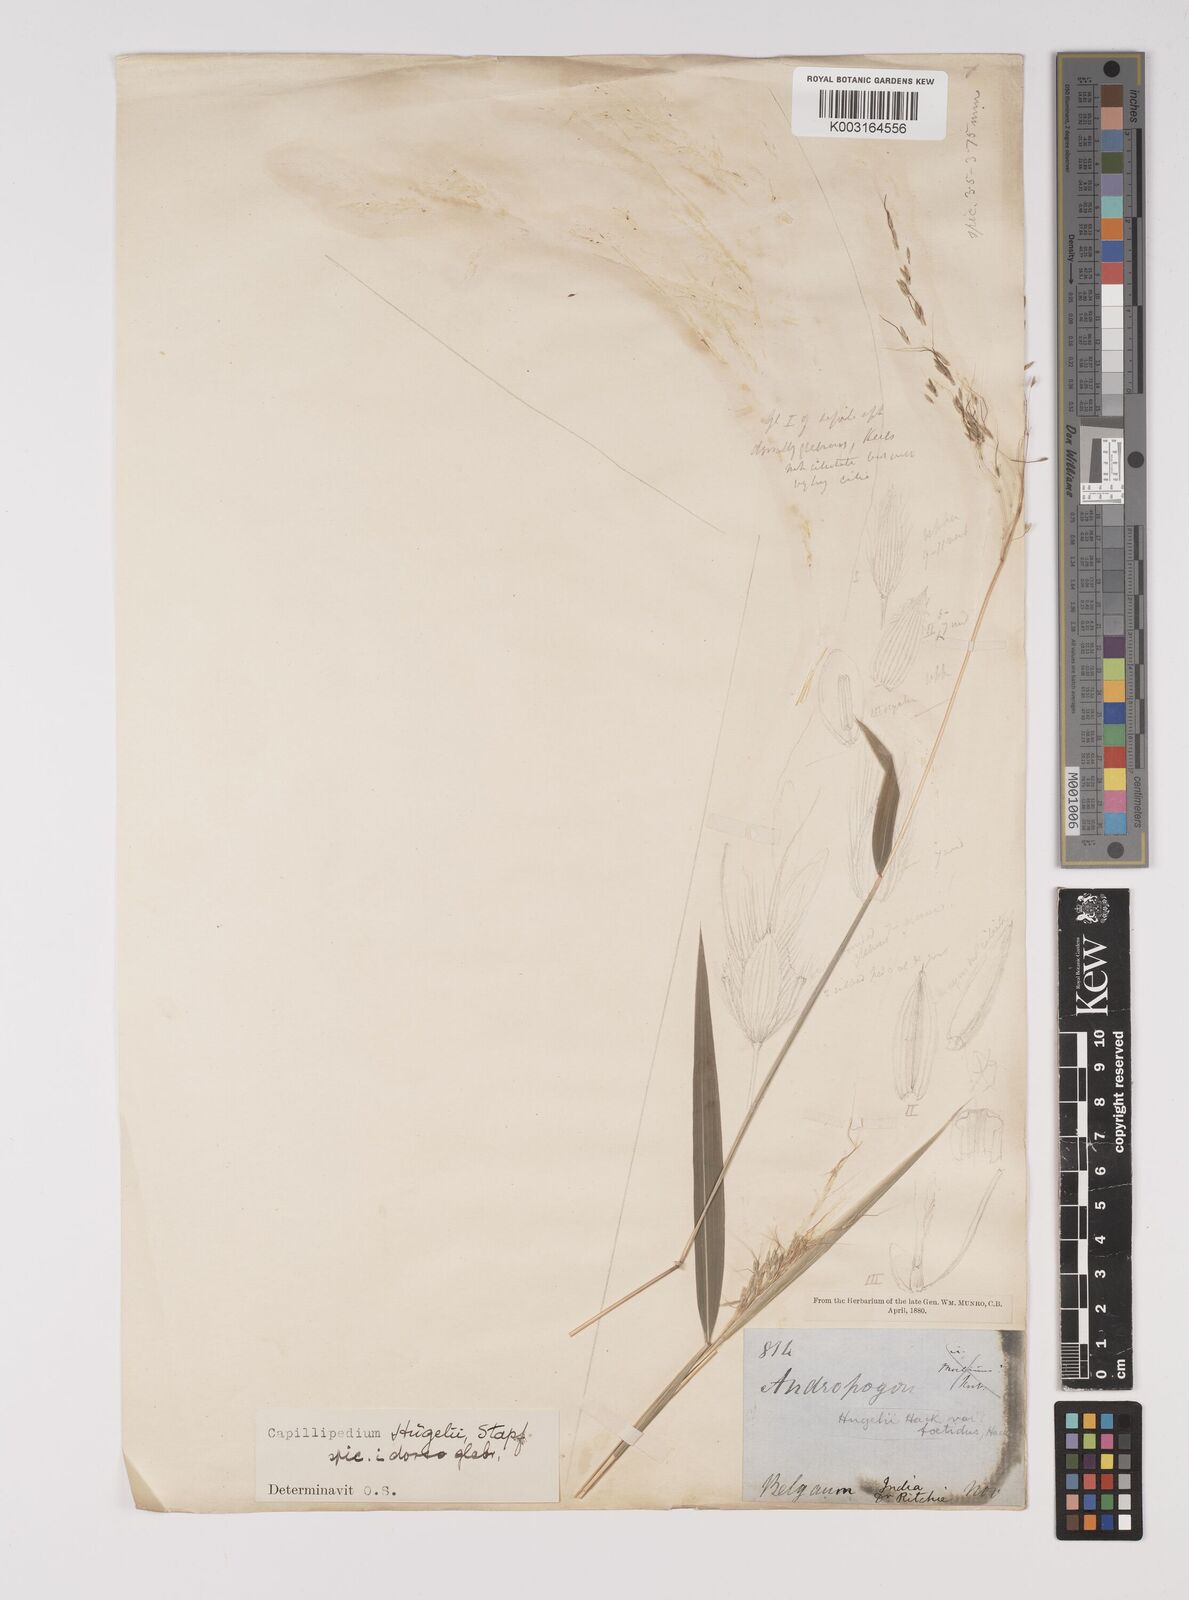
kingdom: Plantae
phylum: Tracheophyta
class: Liliopsida
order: Poales
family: Poaceae
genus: Capillipedium
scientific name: Capillipedium huegelii
